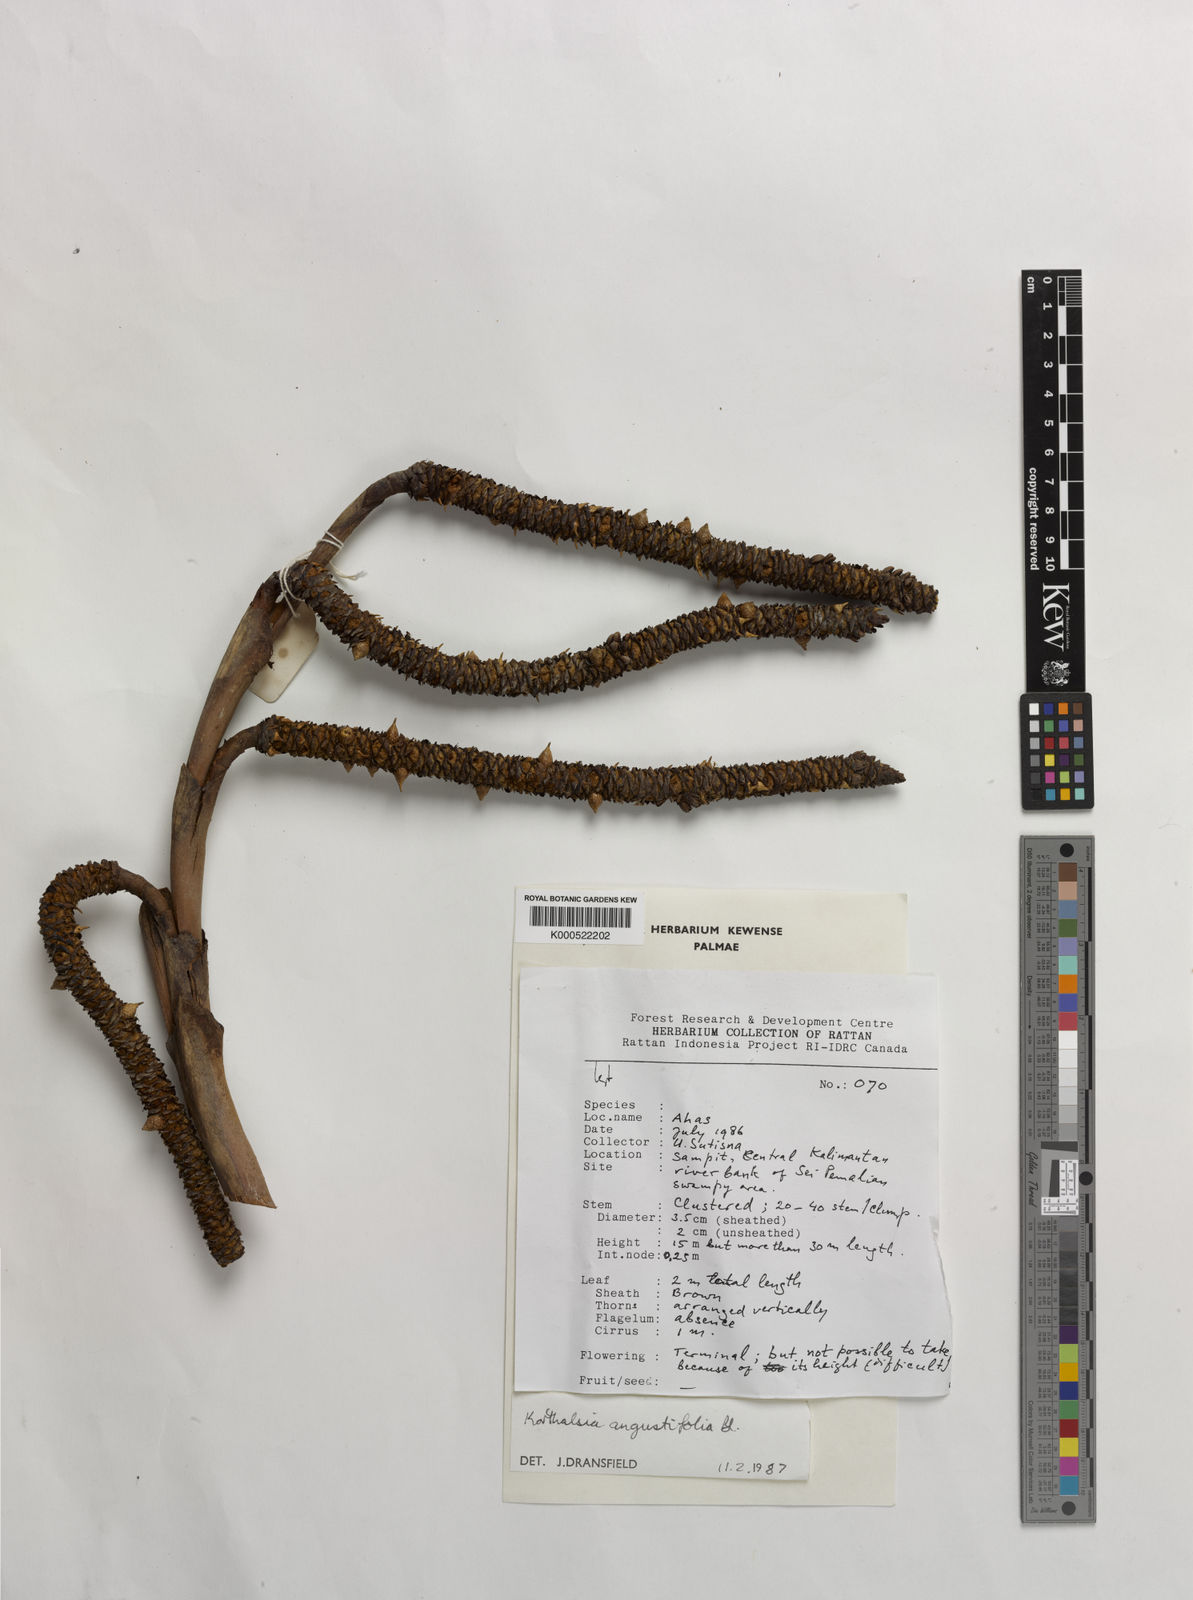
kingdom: Plantae
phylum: Tracheophyta
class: Liliopsida
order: Arecales
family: Arecaceae
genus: Korthalsia
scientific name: Korthalsia angustifolia
